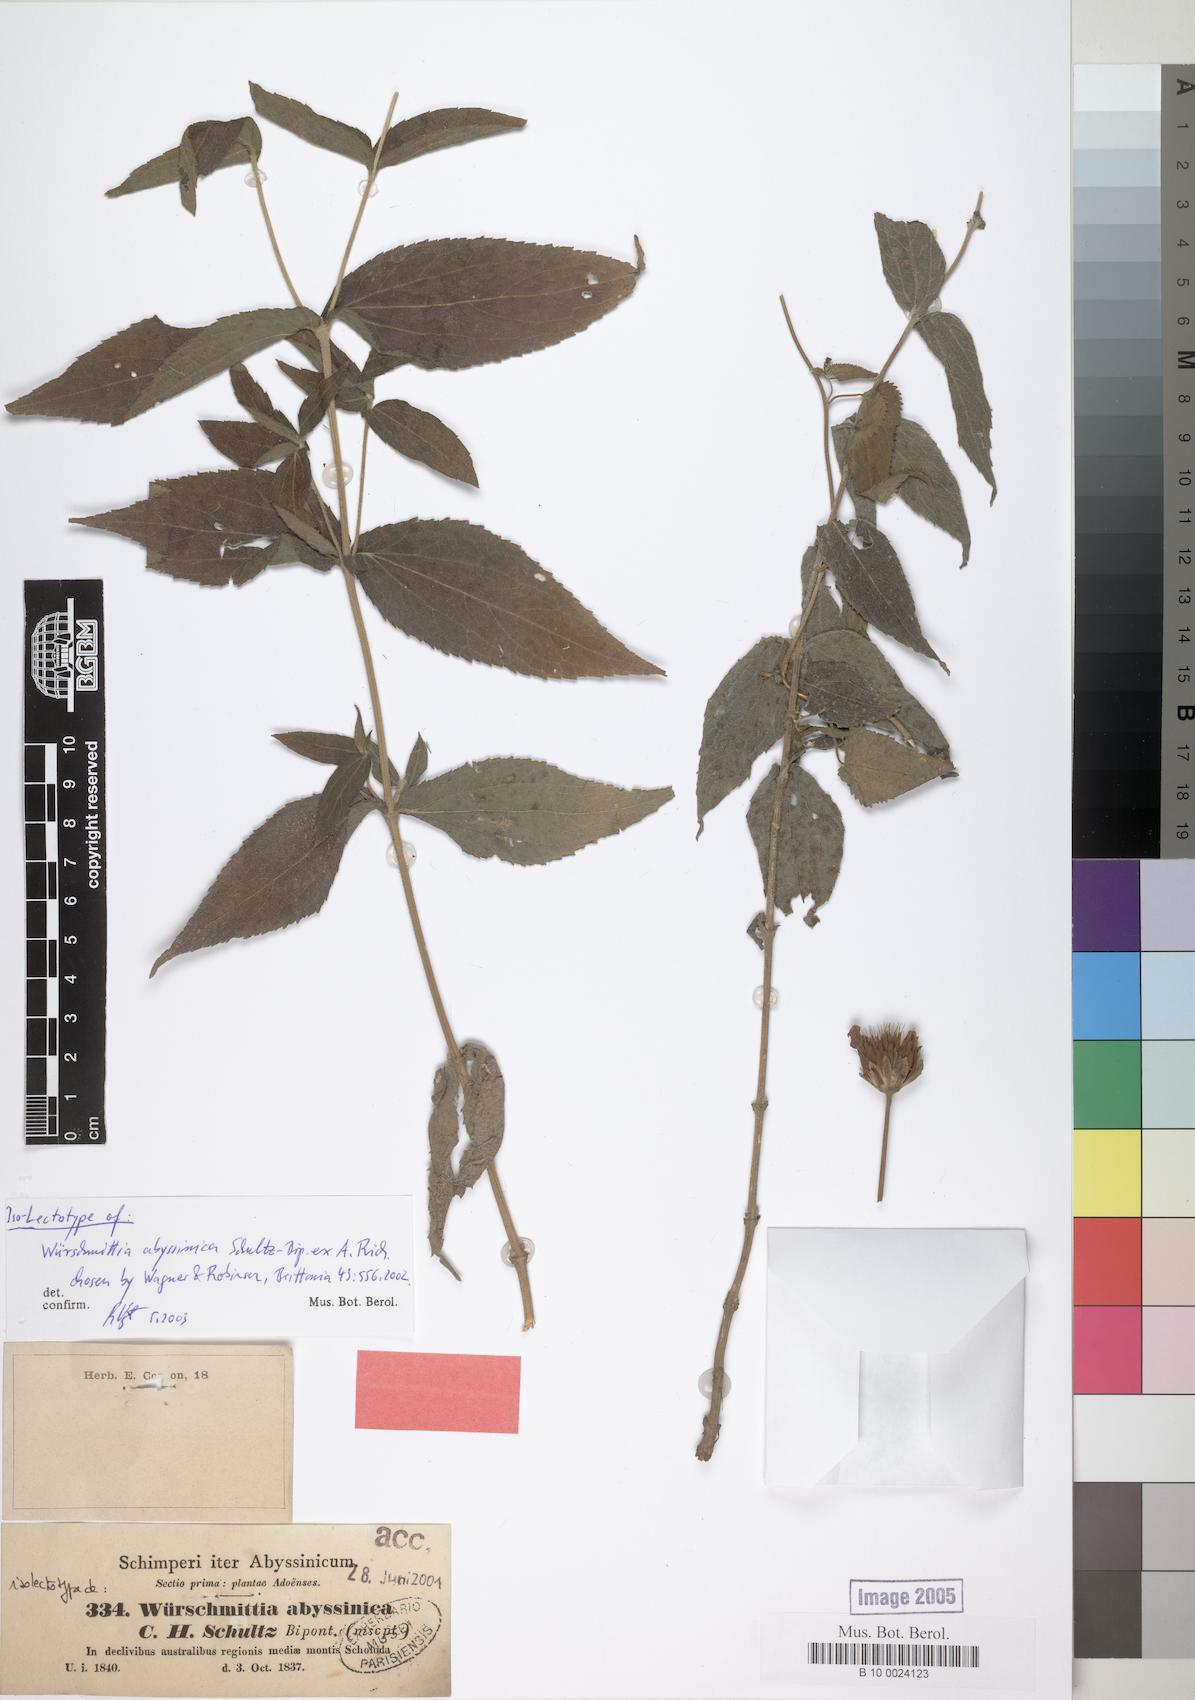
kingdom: Plantae
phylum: Tracheophyta
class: Magnoliopsida
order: Asterales
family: Asteraceae
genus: Lipotriche
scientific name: Lipotriche abyssinica
